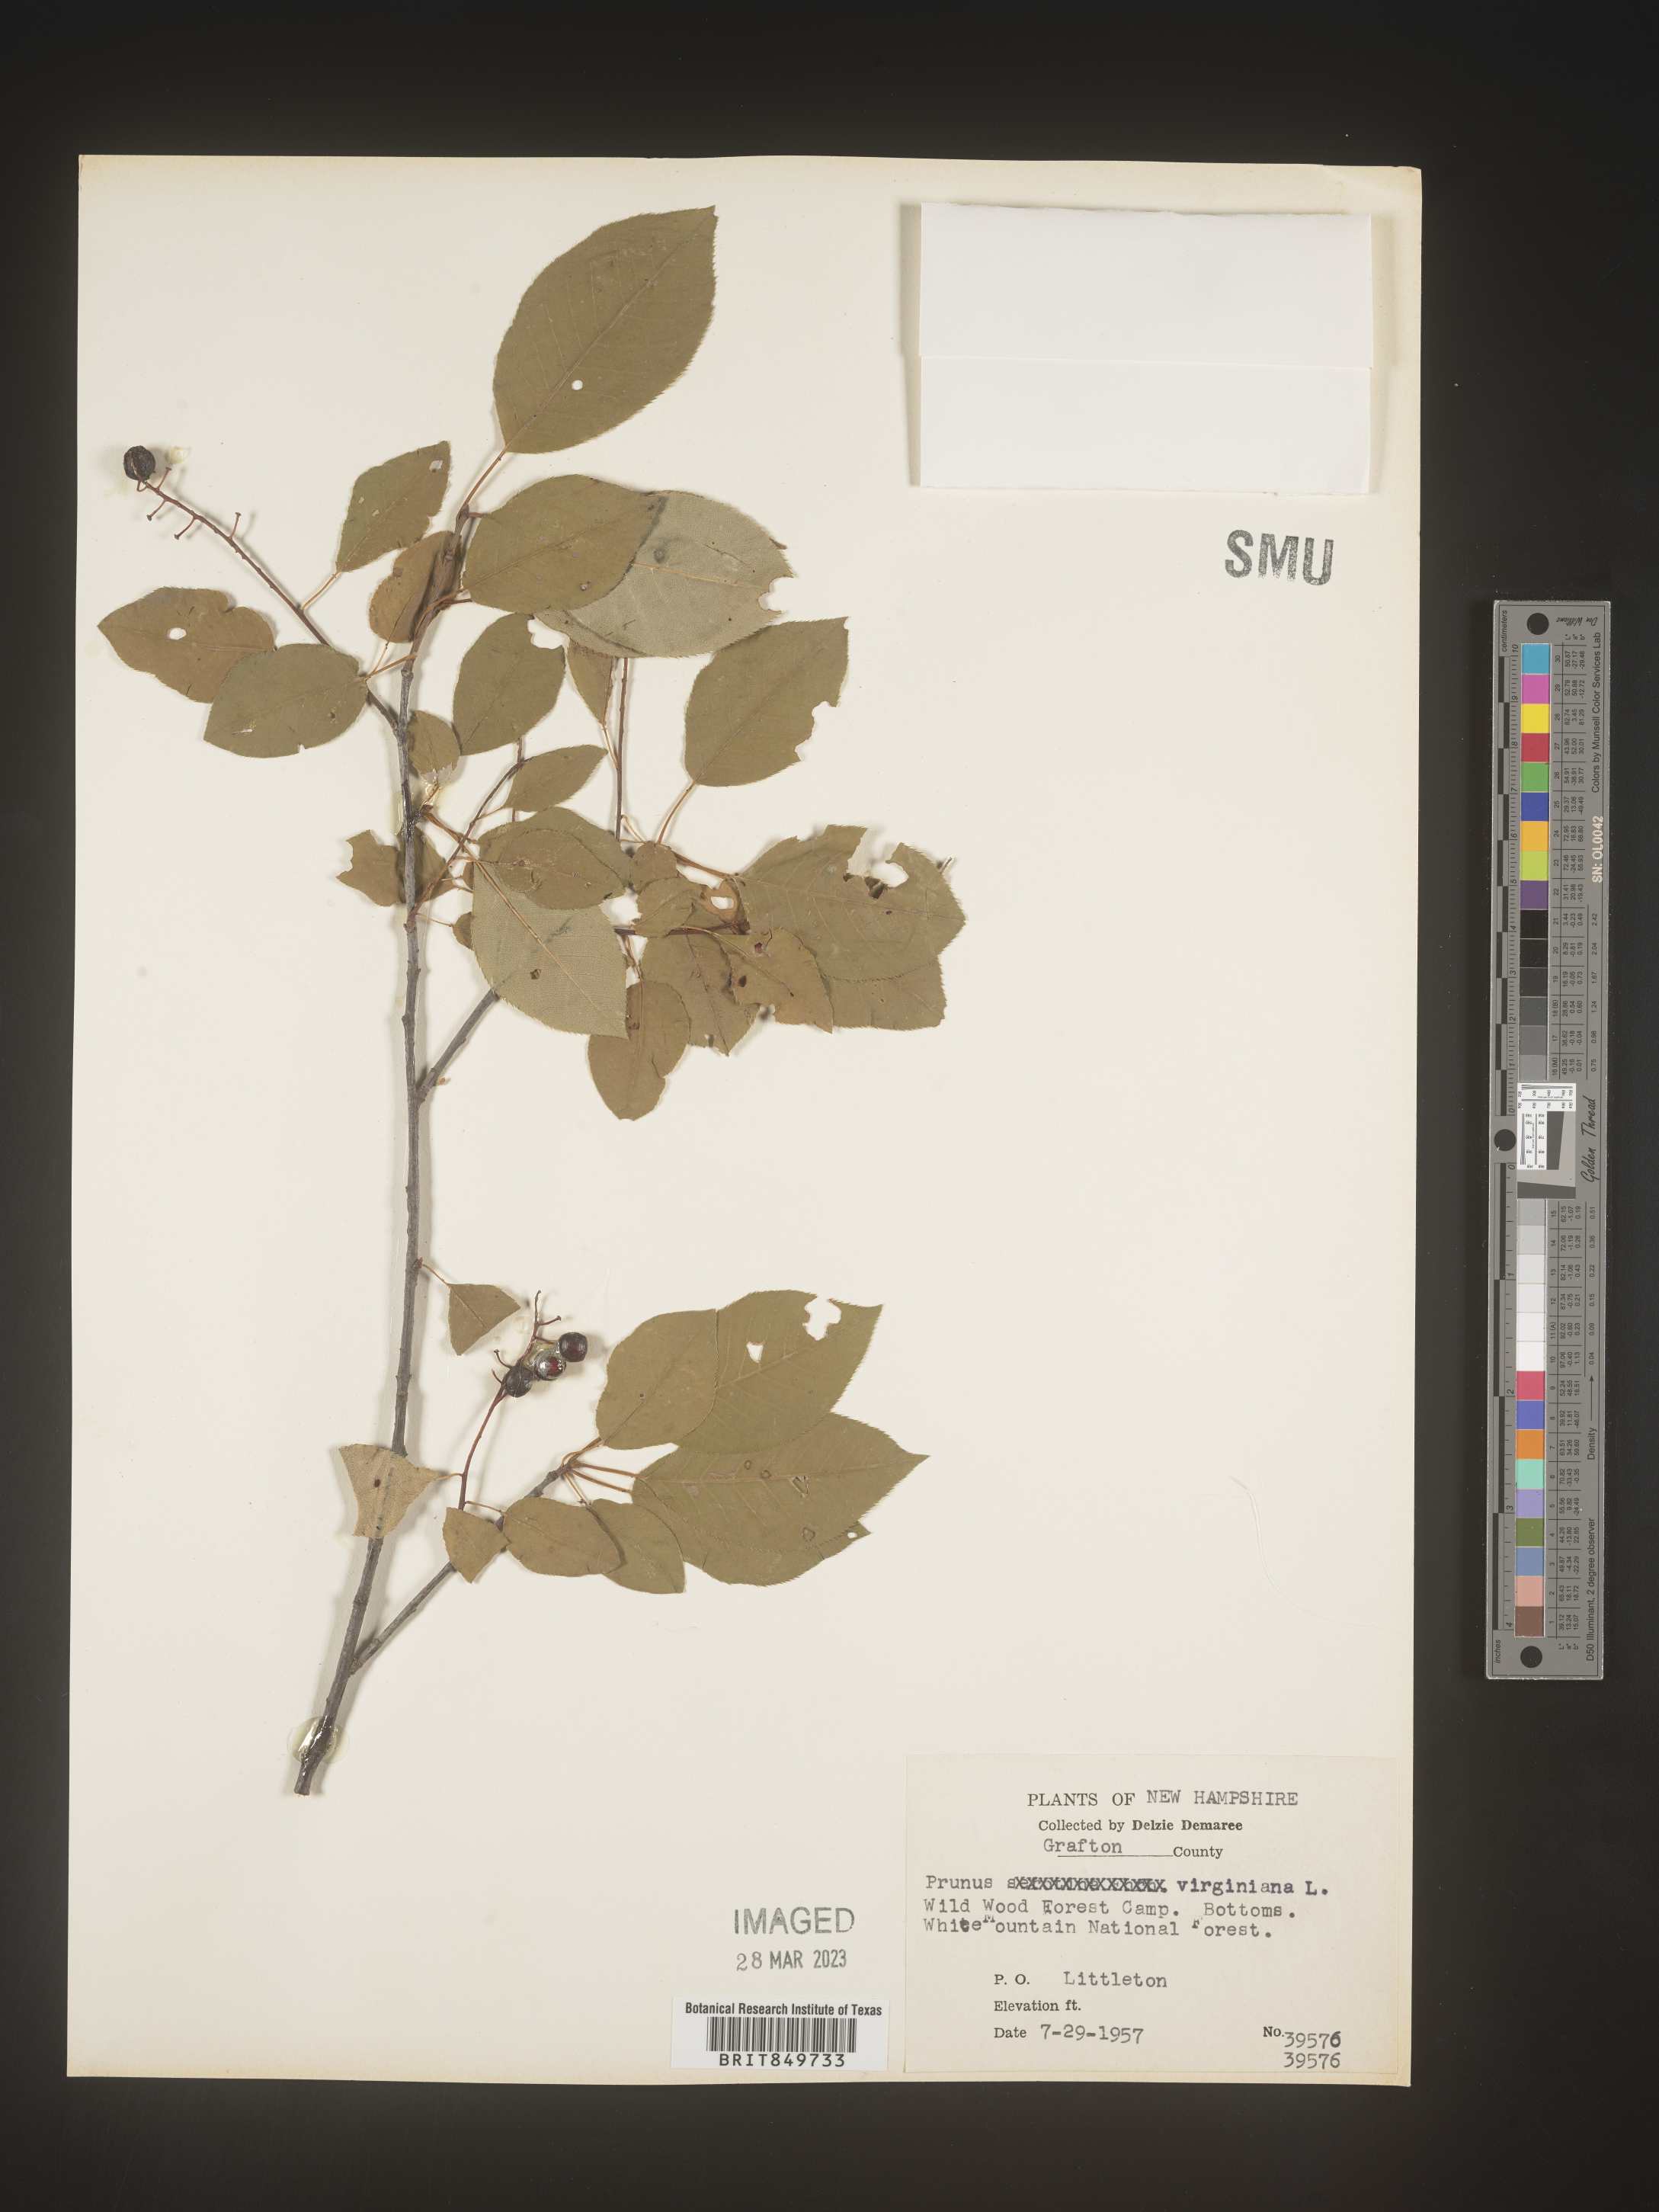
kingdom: Plantae
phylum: Tracheophyta
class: Magnoliopsida
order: Rosales
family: Rosaceae
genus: Prunus
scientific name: Prunus virginiana
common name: Chokecherry
